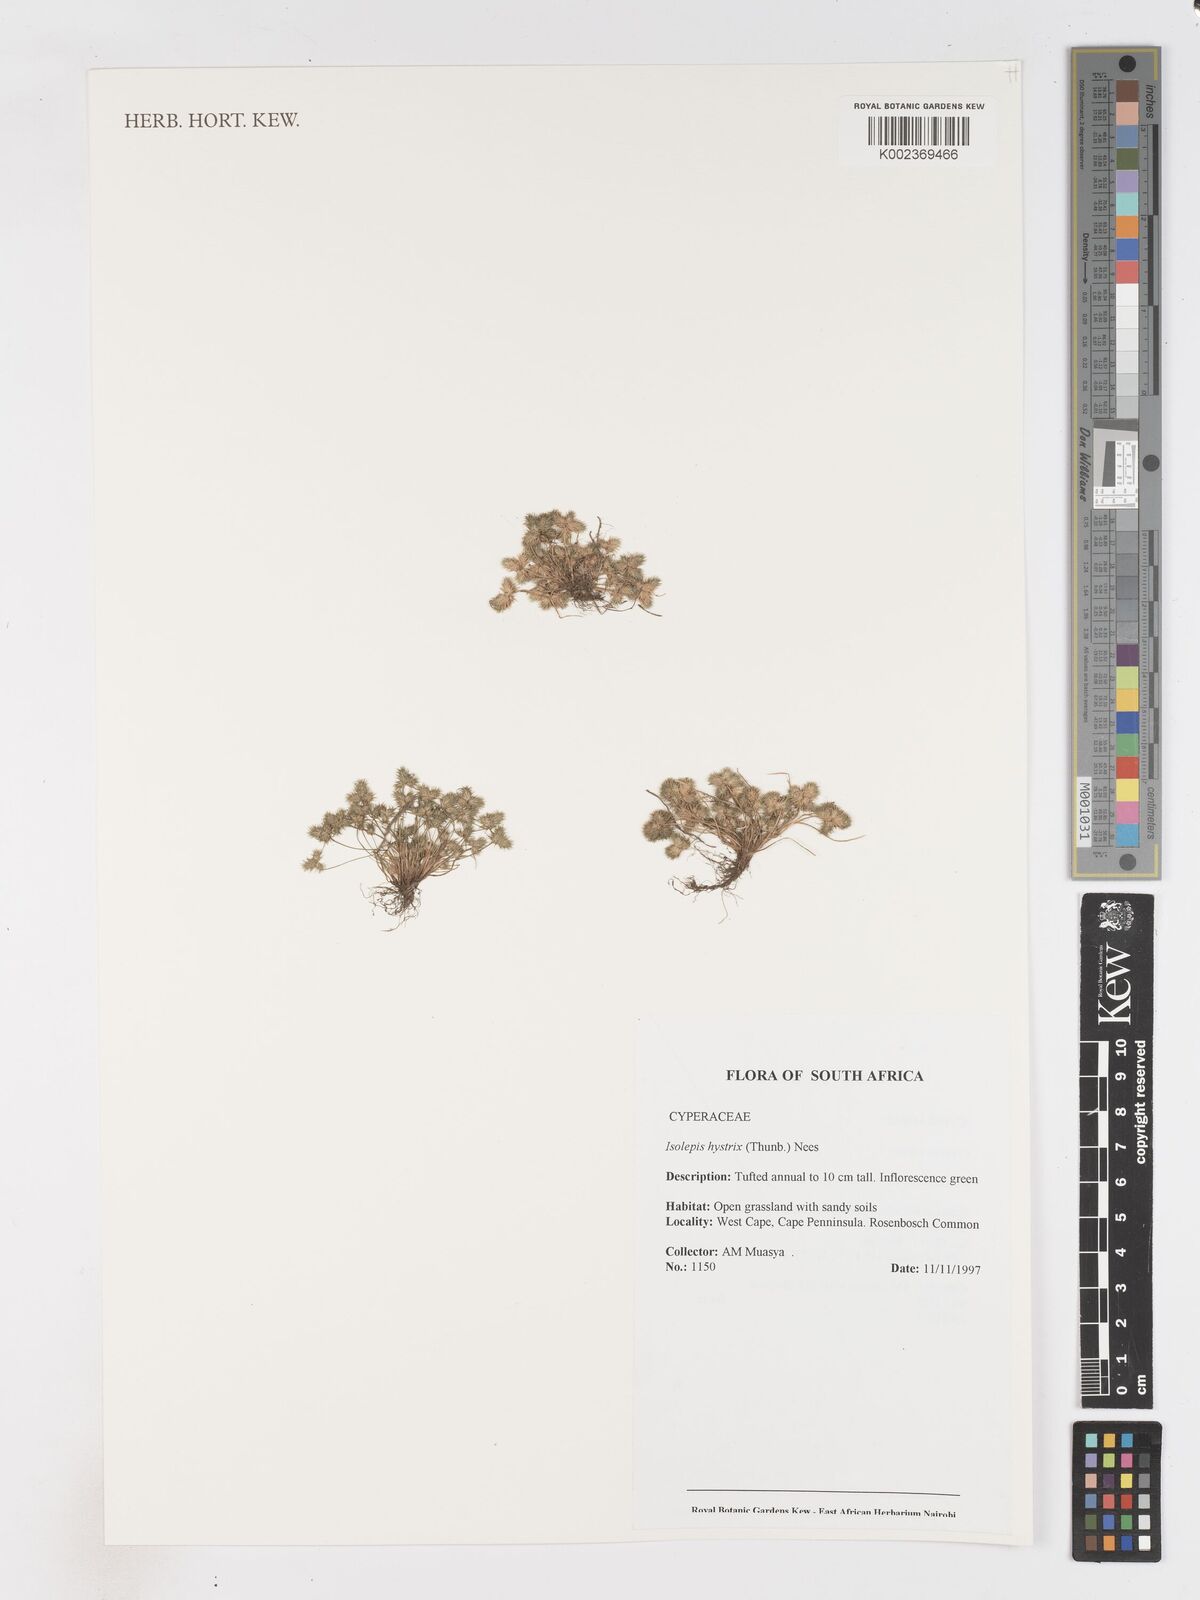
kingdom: Plantae
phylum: Tracheophyta
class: Liliopsida
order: Poales
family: Cyperaceae
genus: Isolepis
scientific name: Isolepis hystrix
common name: Bottlebrush bulrush
